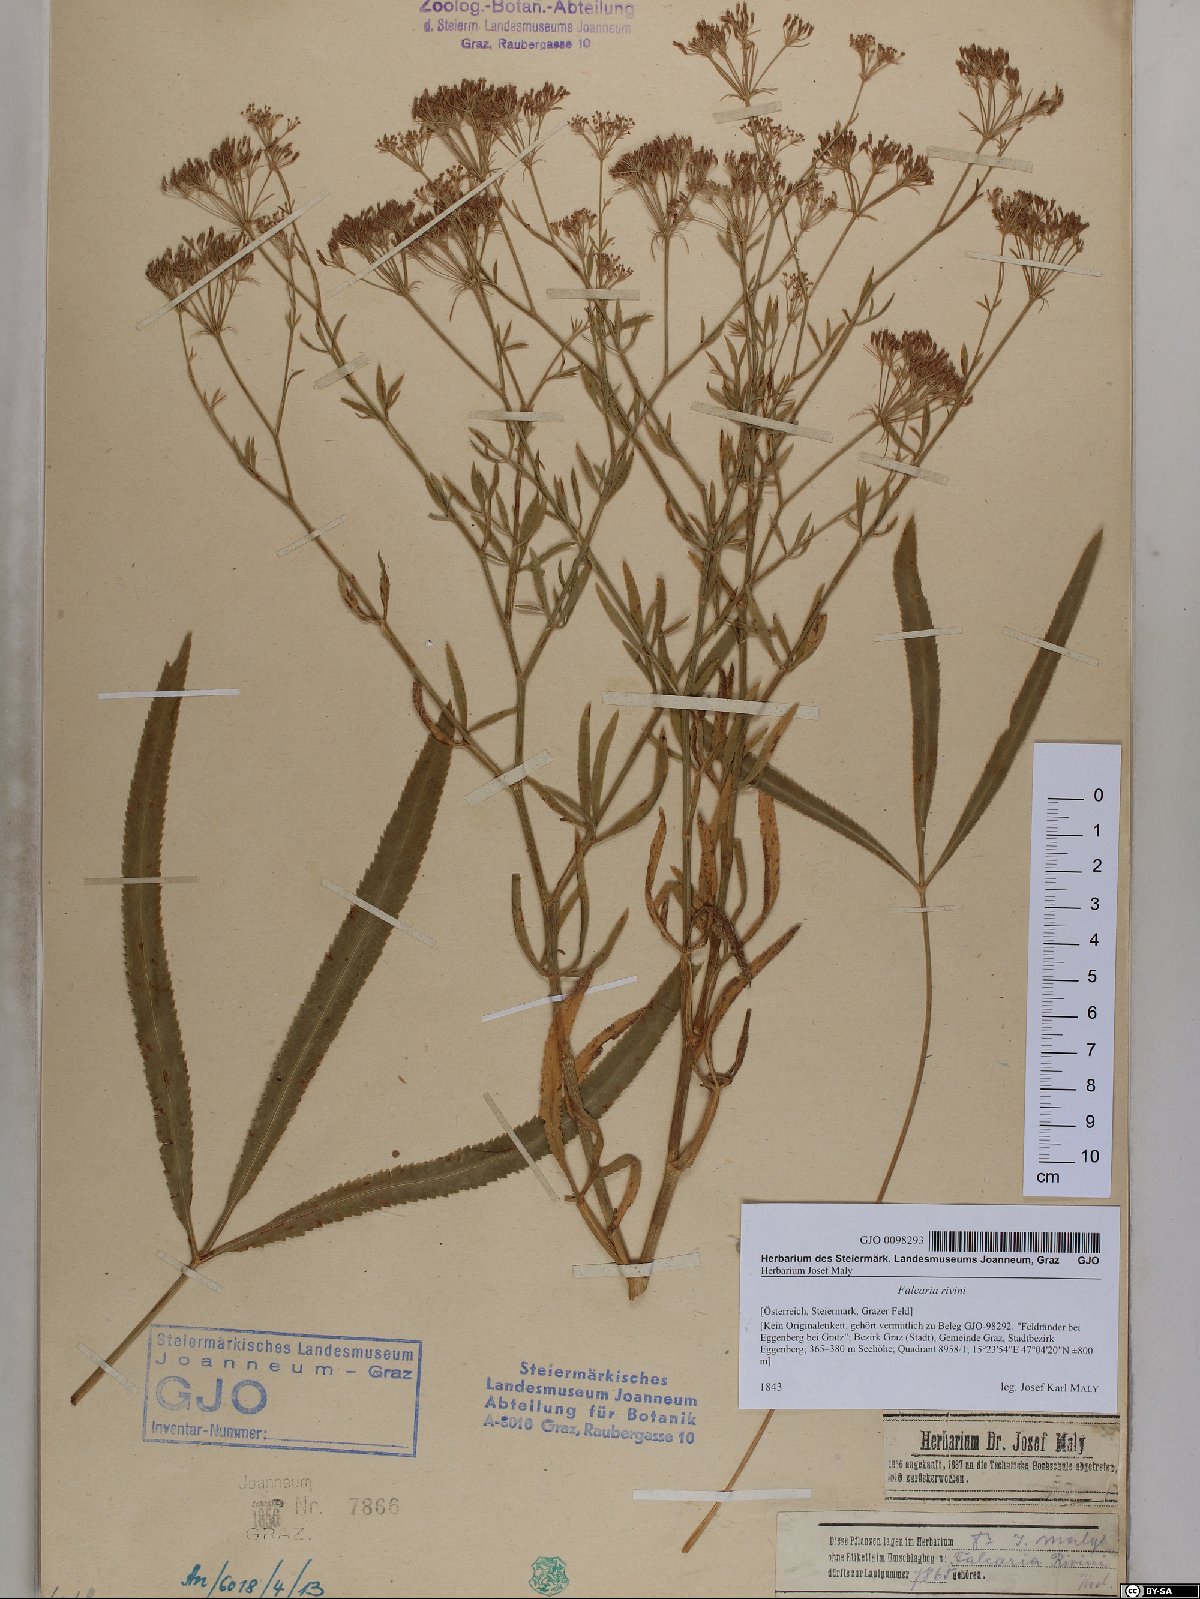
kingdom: Plantae
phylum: Tracheophyta
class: Magnoliopsida
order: Apiales
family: Apiaceae
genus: Falcaria
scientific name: Falcaria vulgaris
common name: Longleaf
